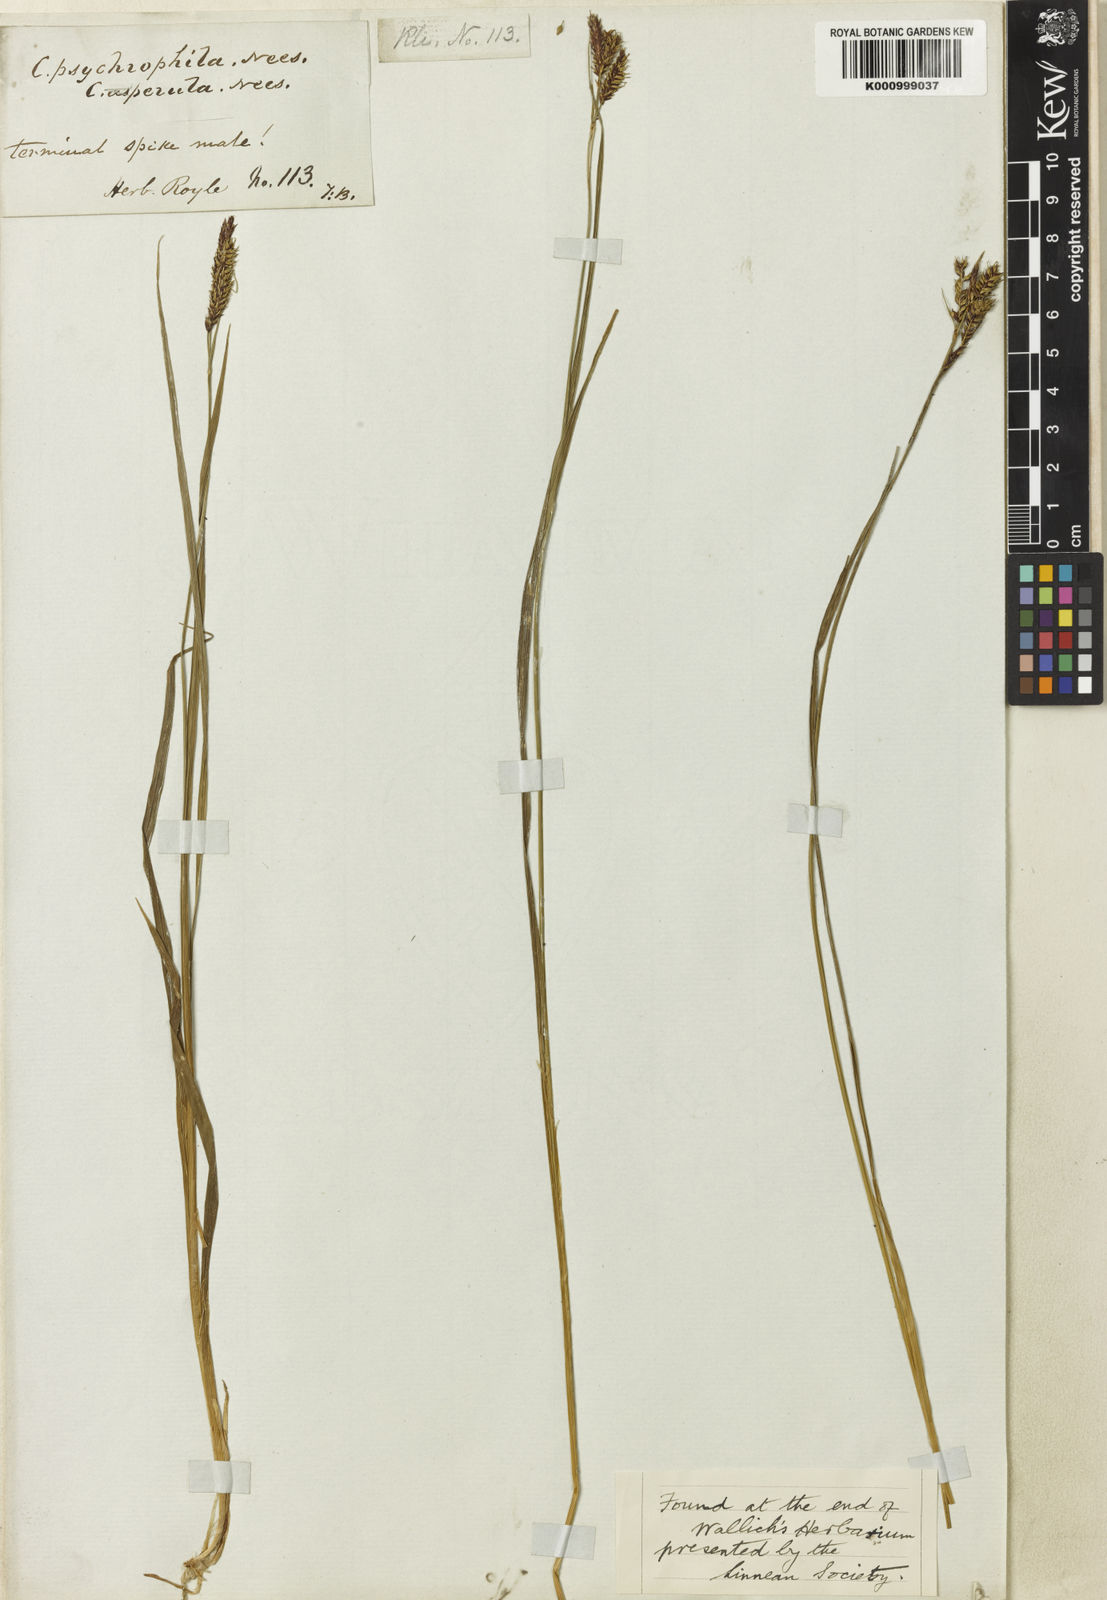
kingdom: Plantae
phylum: Tracheophyta
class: Liliopsida
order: Poales
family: Cyperaceae
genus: Carex
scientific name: Carex psychrophila
